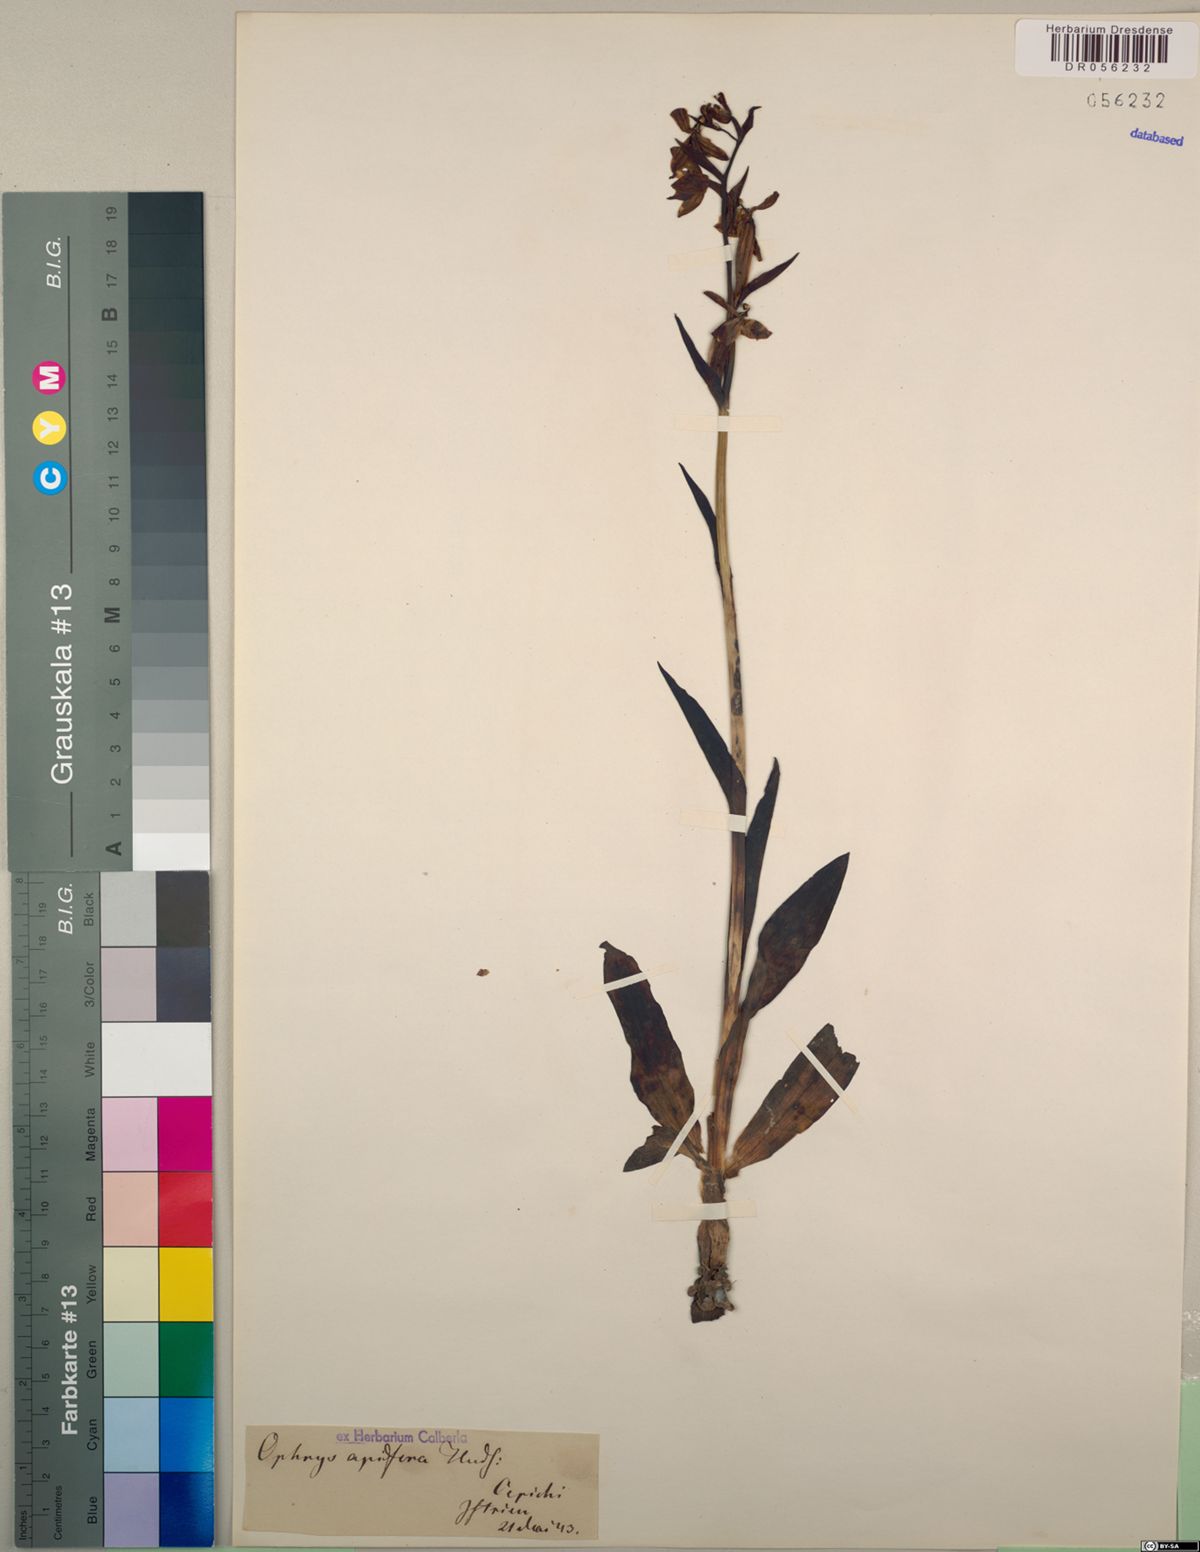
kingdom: Plantae
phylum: Tracheophyta
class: Liliopsida
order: Asparagales
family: Orchidaceae
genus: Ophrys
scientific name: Ophrys apifera
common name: Bee orchid
